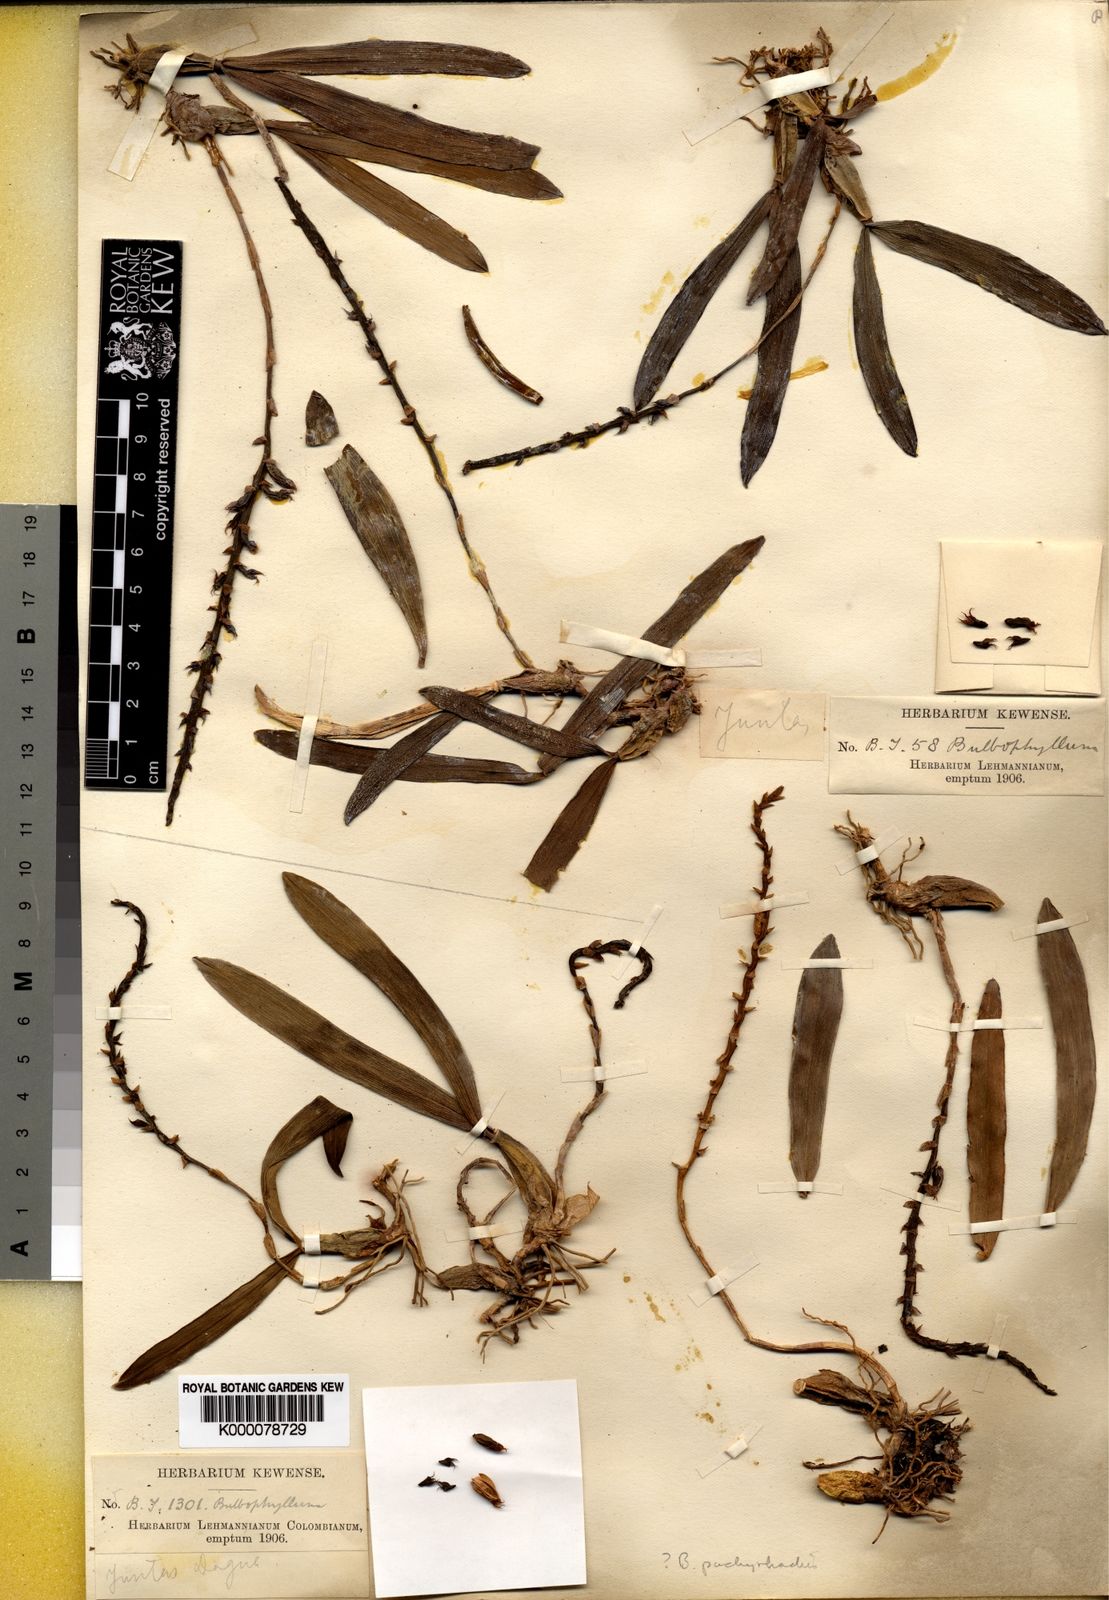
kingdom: Plantae
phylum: Tracheophyta
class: Liliopsida
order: Asparagales
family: Orchidaceae
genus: Bulbophyllum
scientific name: Bulbophyllum
